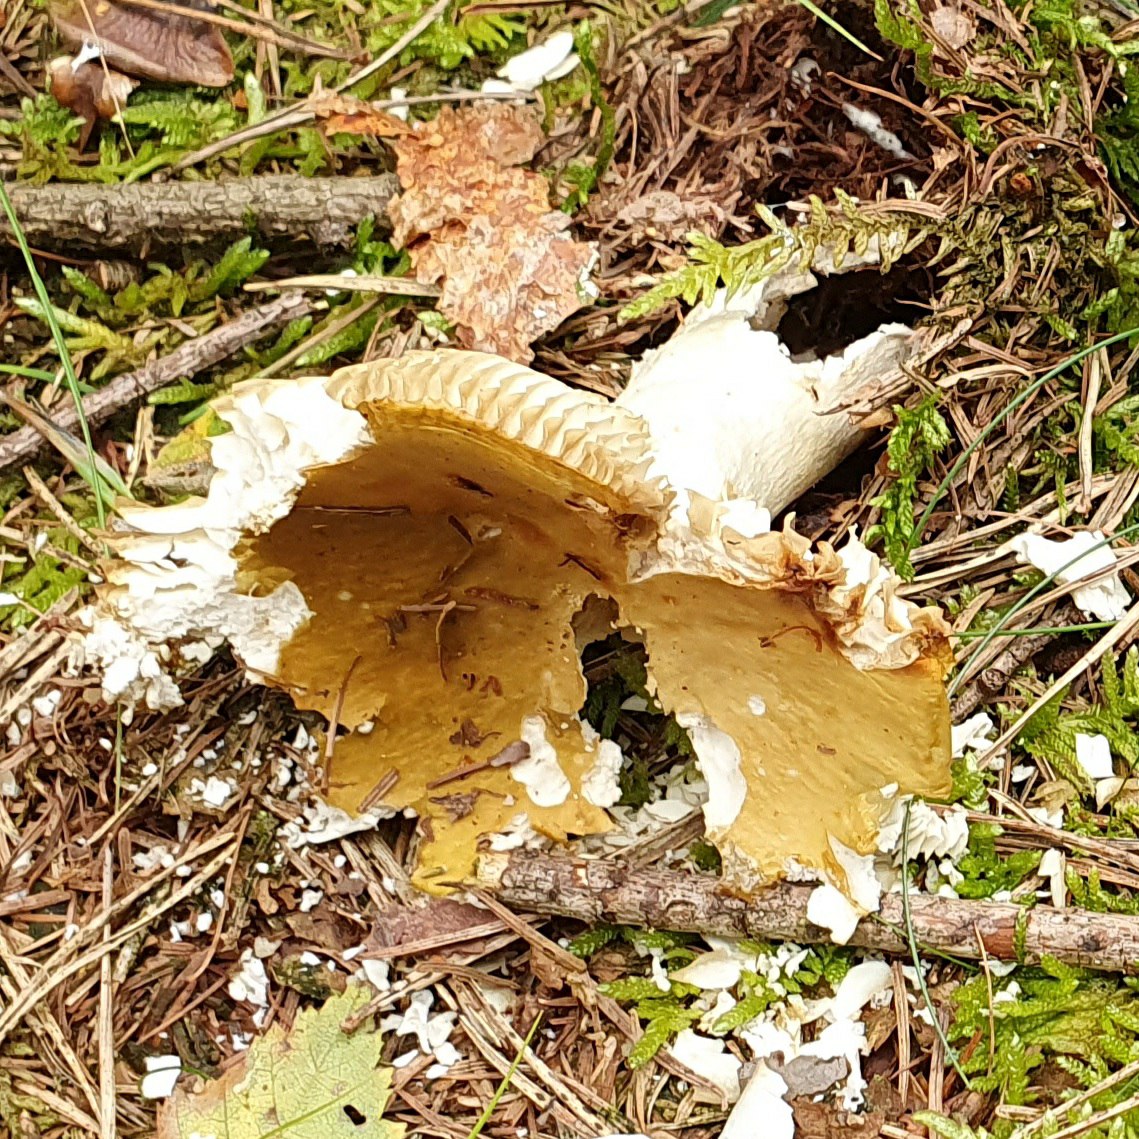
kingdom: Fungi
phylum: Basidiomycota
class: Agaricomycetes
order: Russulales
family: Russulaceae
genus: Russula
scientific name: Russula ochroleuca
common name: okkergul skørhat
